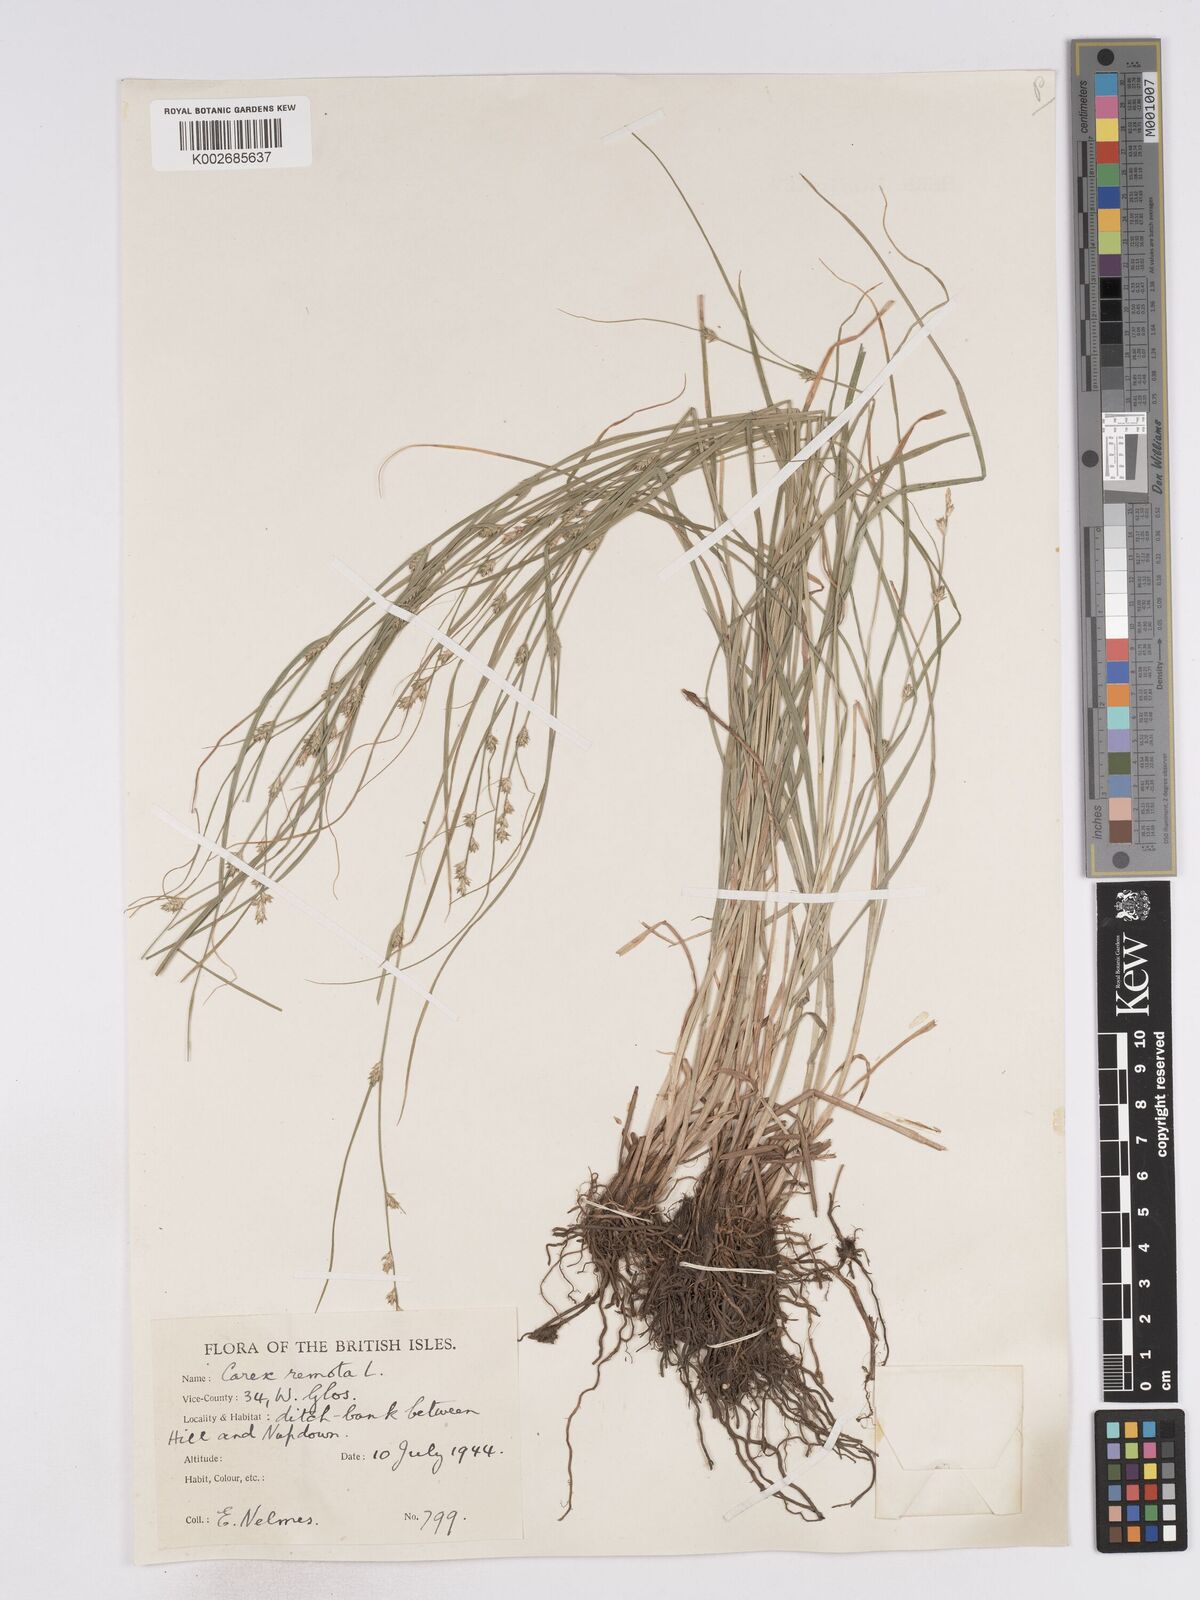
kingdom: Plantae
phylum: Tracheophyta
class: Liliopsida
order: Poales
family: Cyperaceae
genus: Carex
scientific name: Carex remota
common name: Remote sedge
